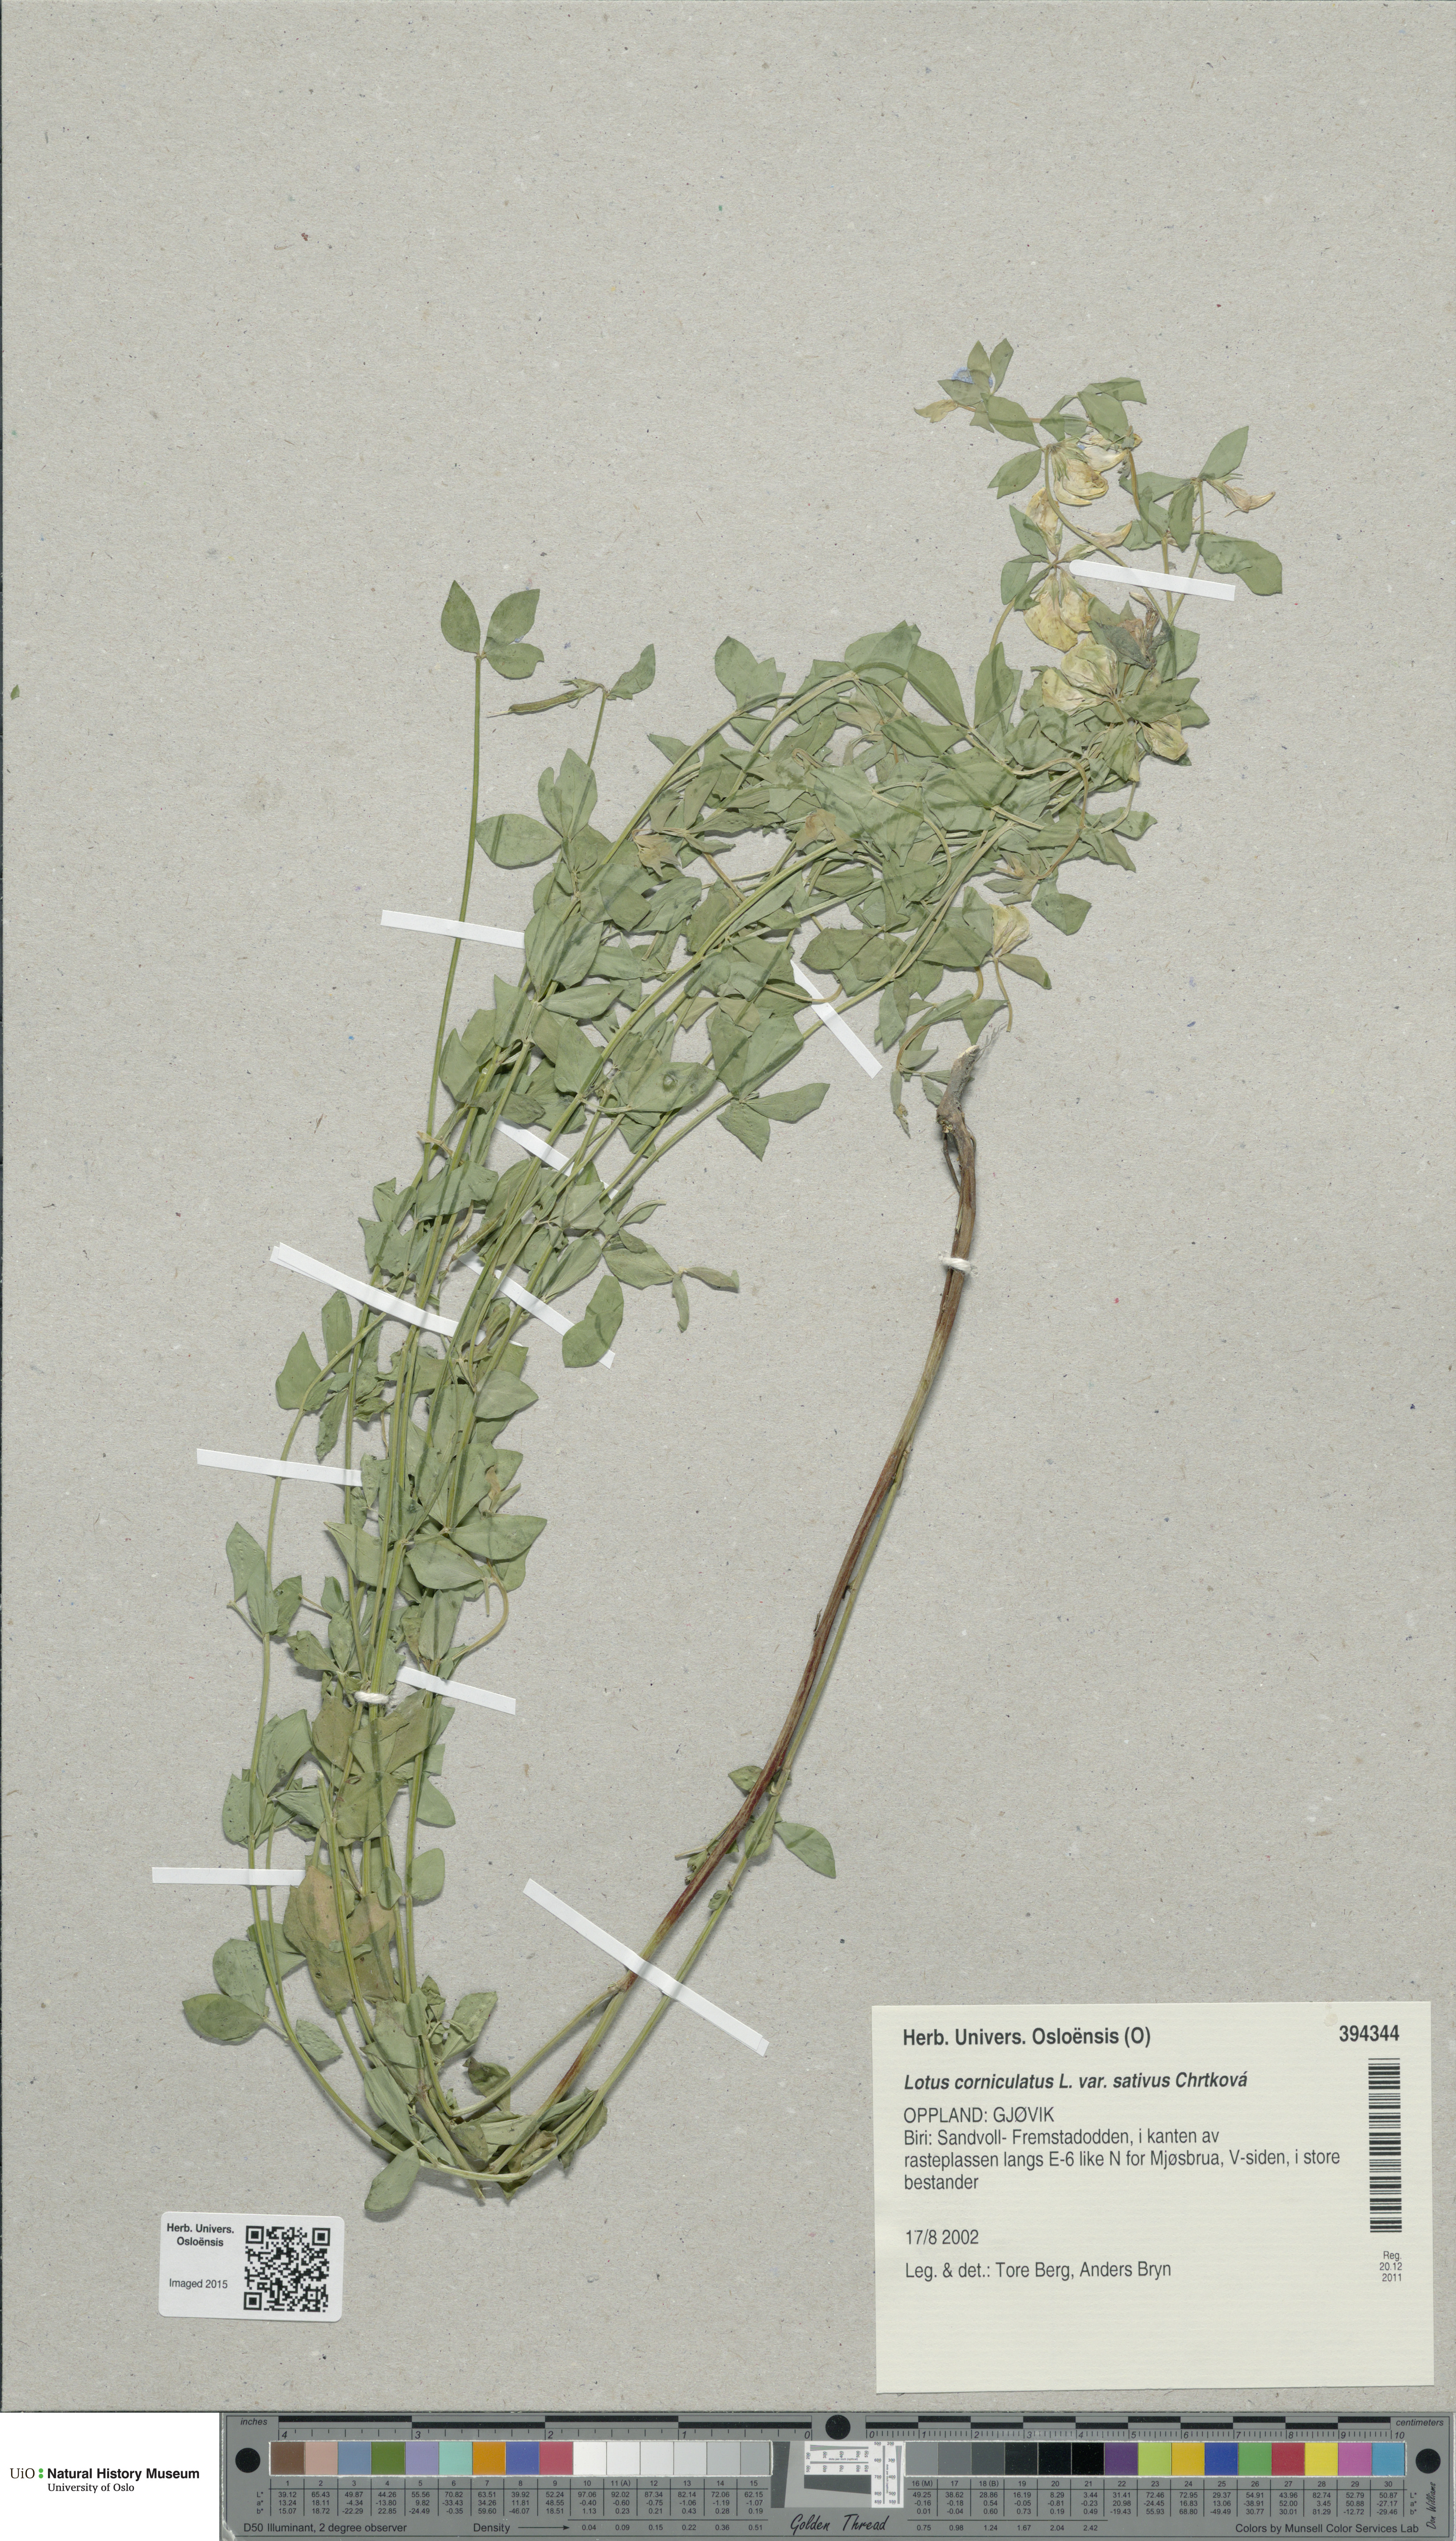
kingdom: Plantae
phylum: Tracheophyta
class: Magnoliopsida
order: Fabales
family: Fabaceae
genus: Lotus
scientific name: Lotus corniculatus
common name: Common bird's-foot-trefoil
